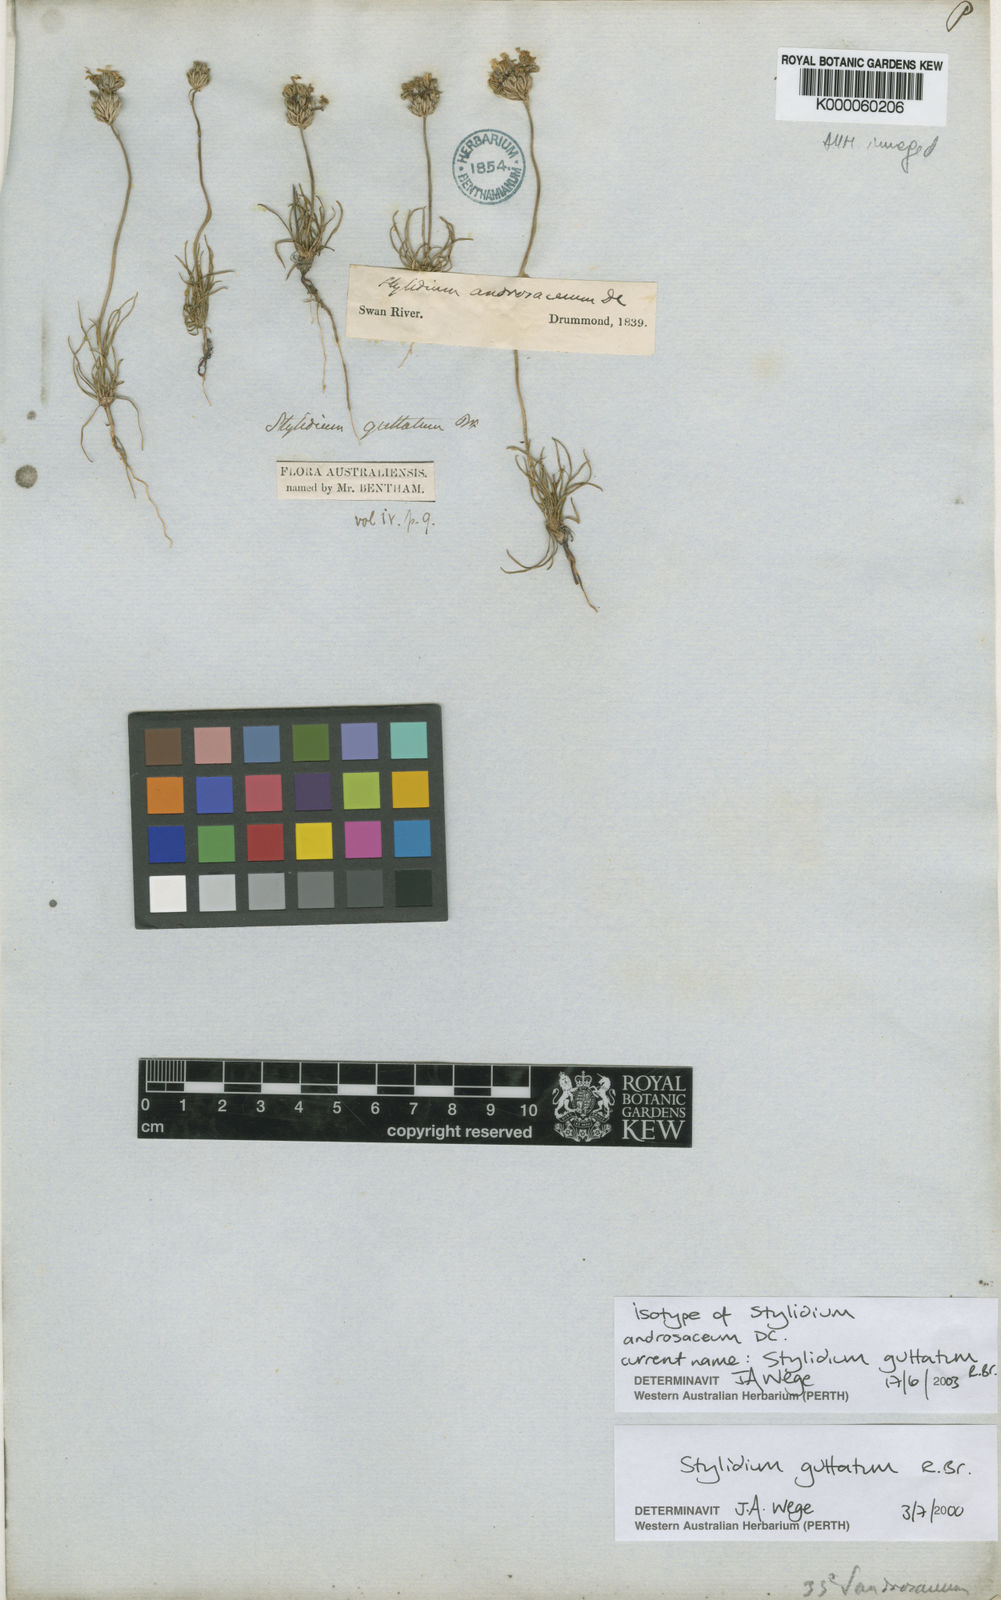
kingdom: Plantae
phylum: Tracheophyta
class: Magnoliopsida
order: Asterales
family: Stylidiaceae
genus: Stylidium
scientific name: Stylidium guttatum
